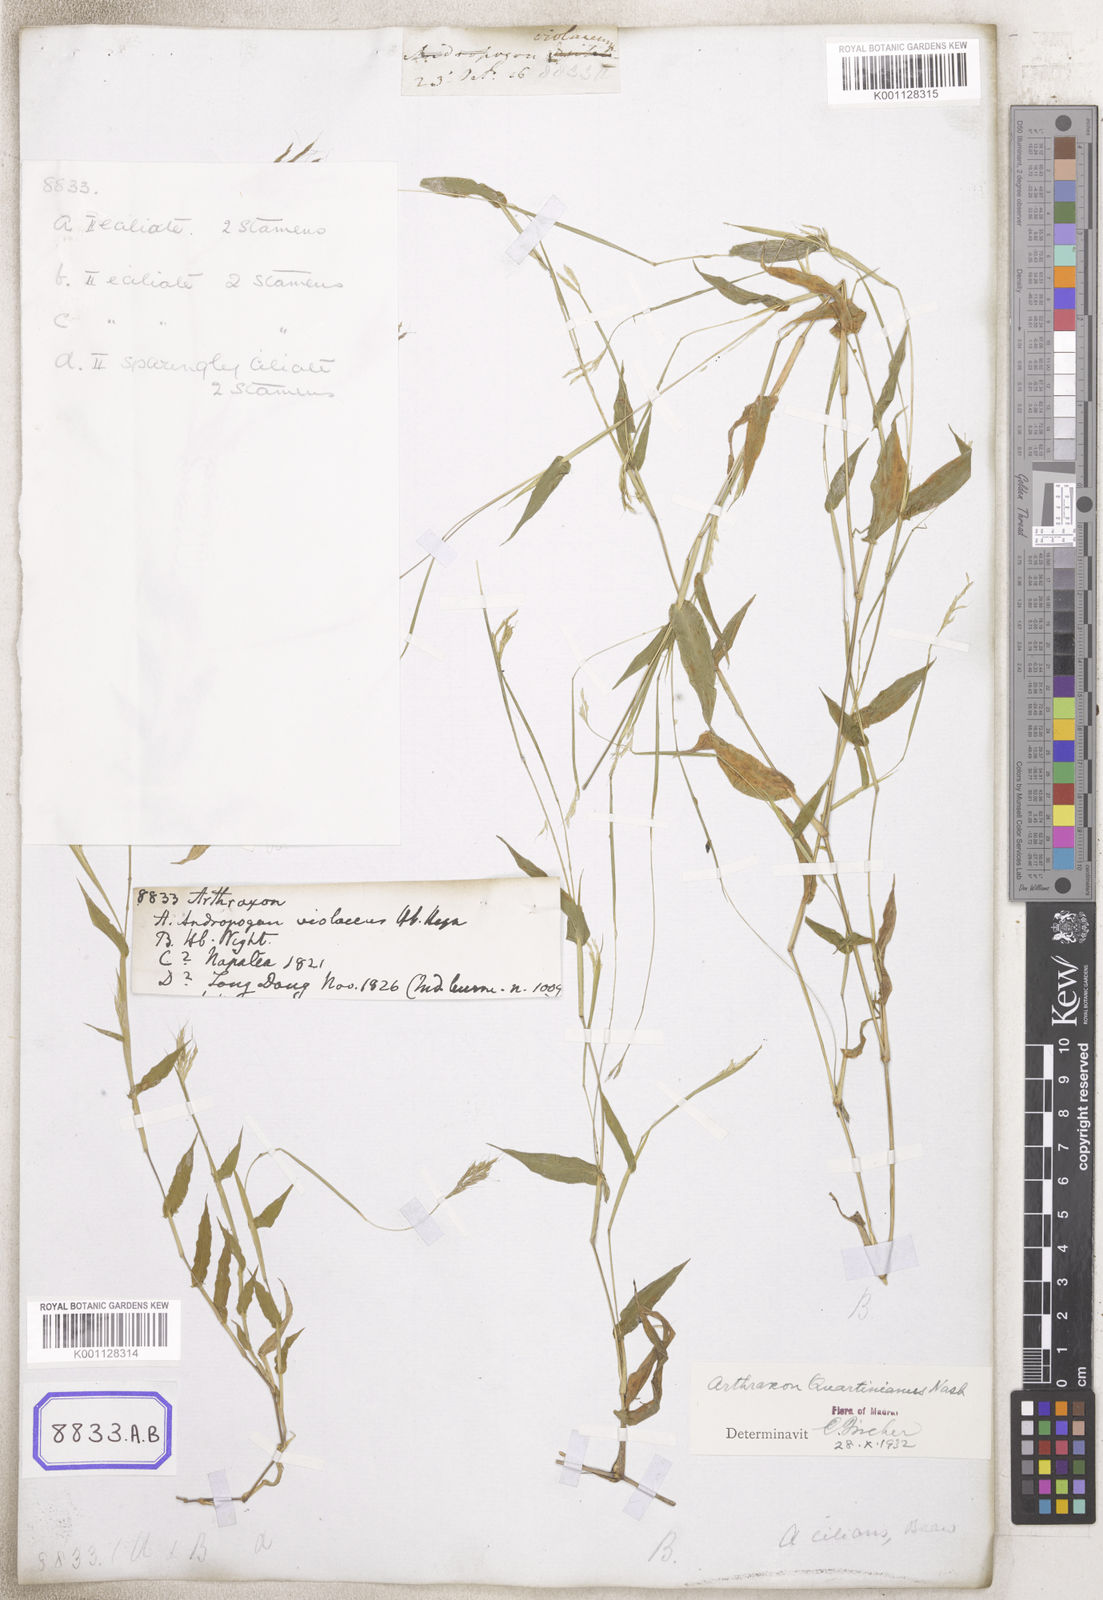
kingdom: Plantae
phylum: Tracheophyta
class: Liliopsida
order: Poales
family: Poaceae
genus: Arthraxon
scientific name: Arthraxon
